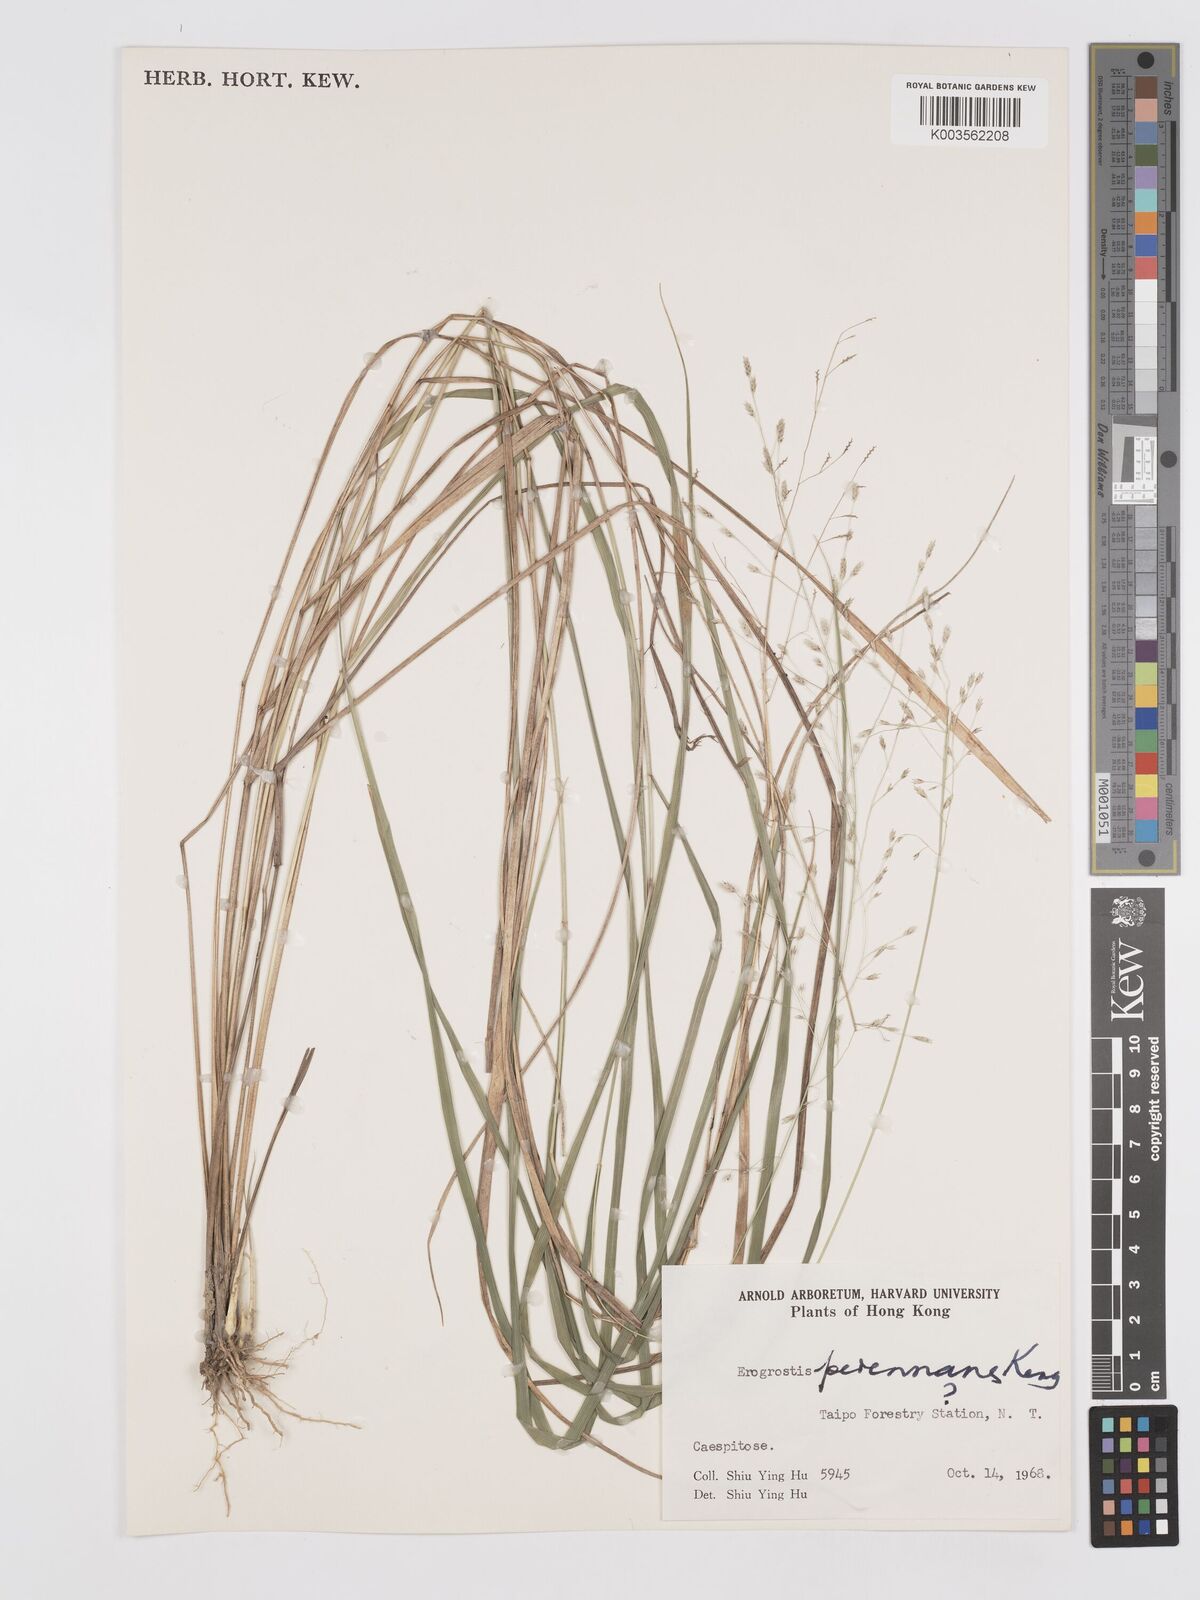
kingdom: Plantae
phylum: Tracheophyta
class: Liliopsida
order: Poales
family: Poaceae
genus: Eragrostis
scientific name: Eragrostis perennans
